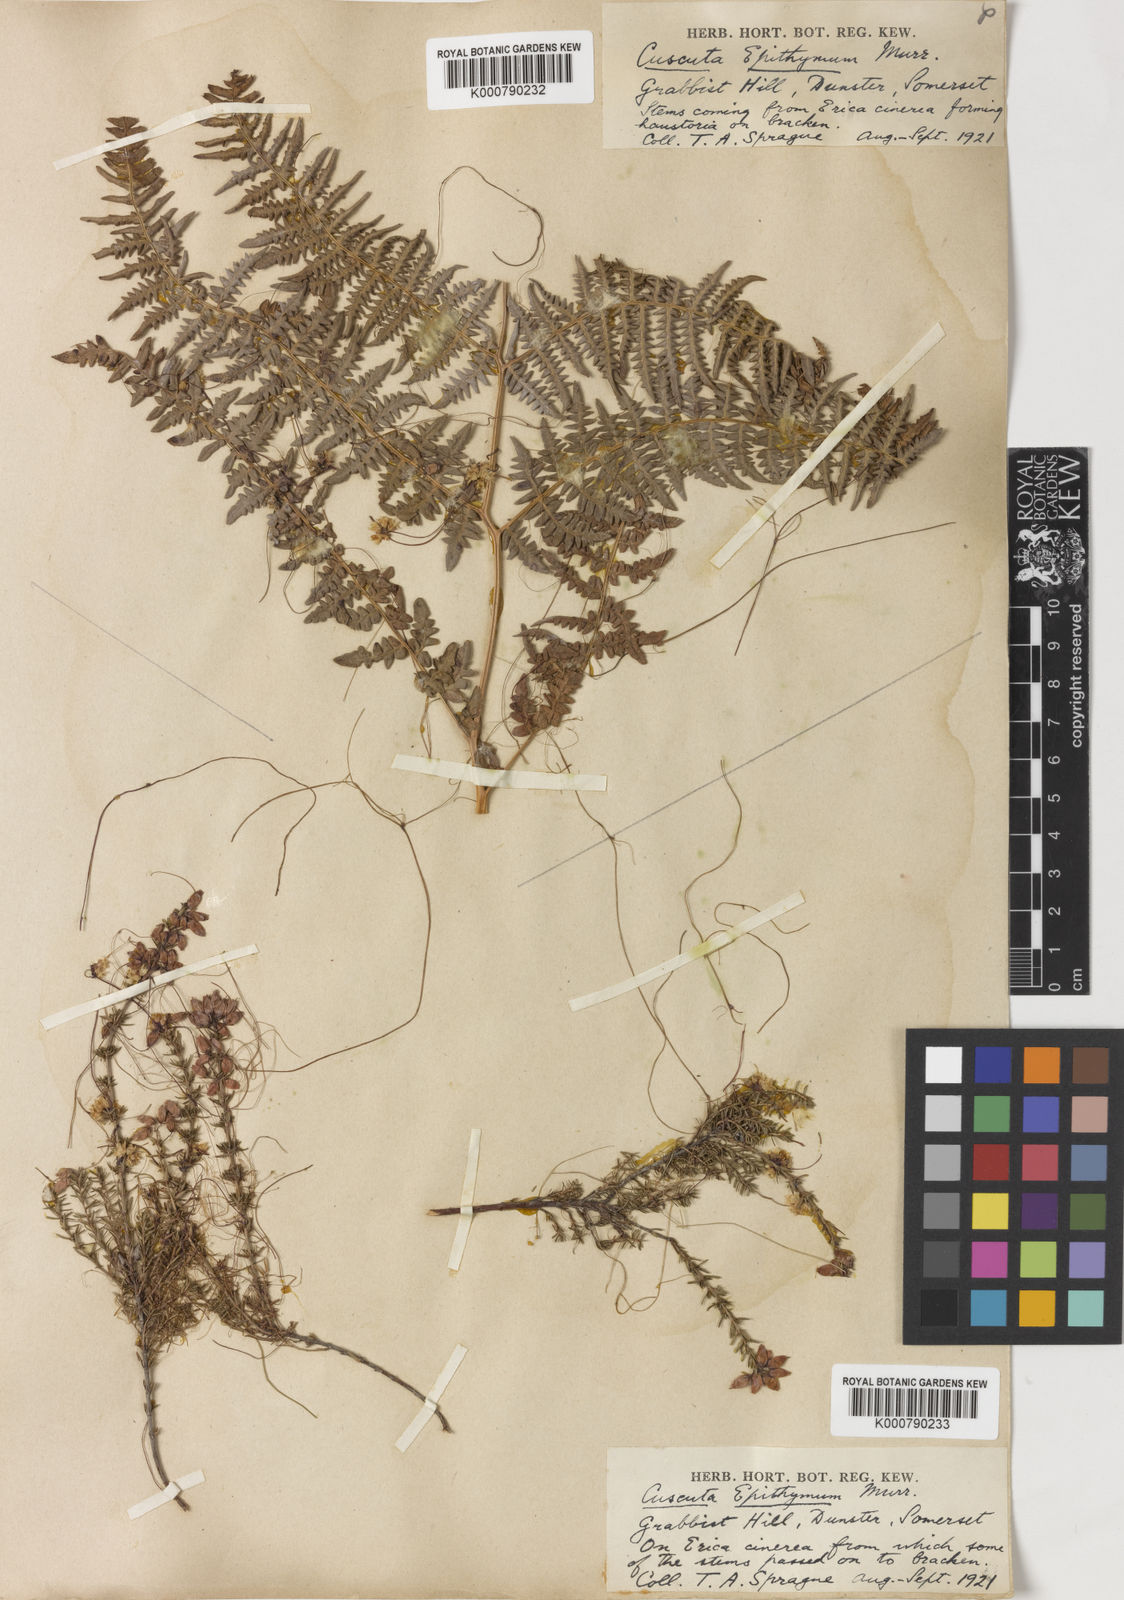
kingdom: Plantae
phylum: Tracheophyta
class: Magnoliopsida
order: Solanales
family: Convolvulaceae
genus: Cuscuta
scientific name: Cuscuta epithymum
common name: Clover dodder
